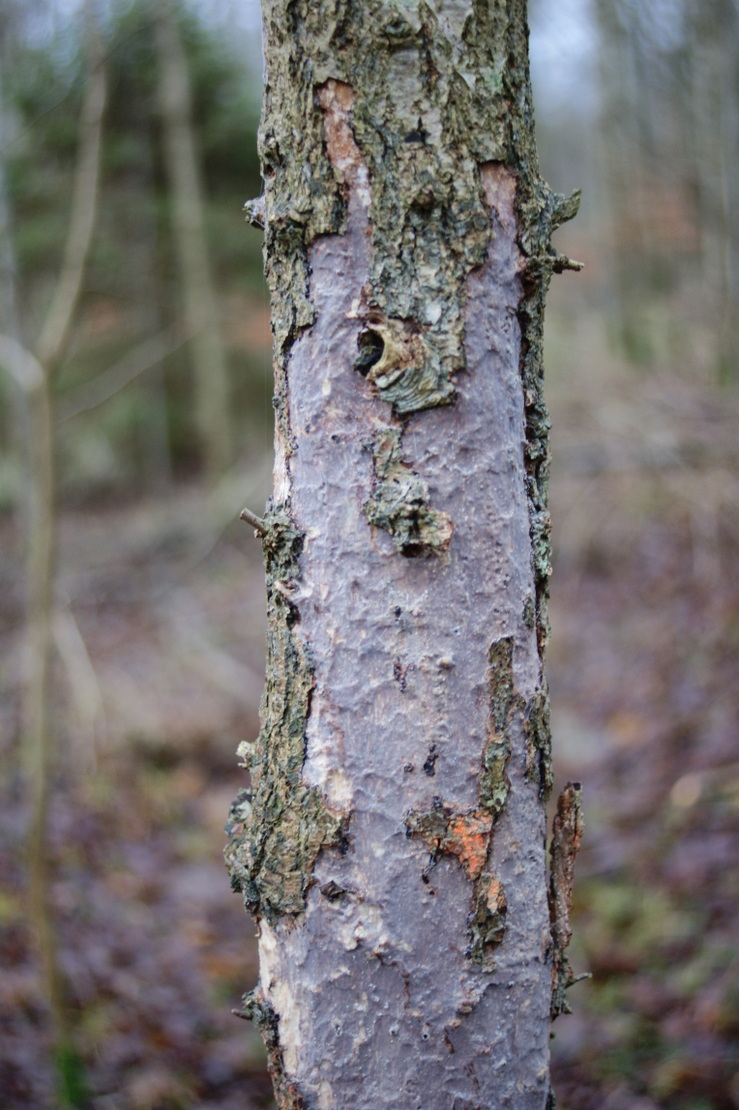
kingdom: Fungi
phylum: Basidiomycota
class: Agaricomycetes
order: Corticiales
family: Vuilleminiaceae
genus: Vuilleminia
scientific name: Vuilleminia comedens
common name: almindelig barksprænger
